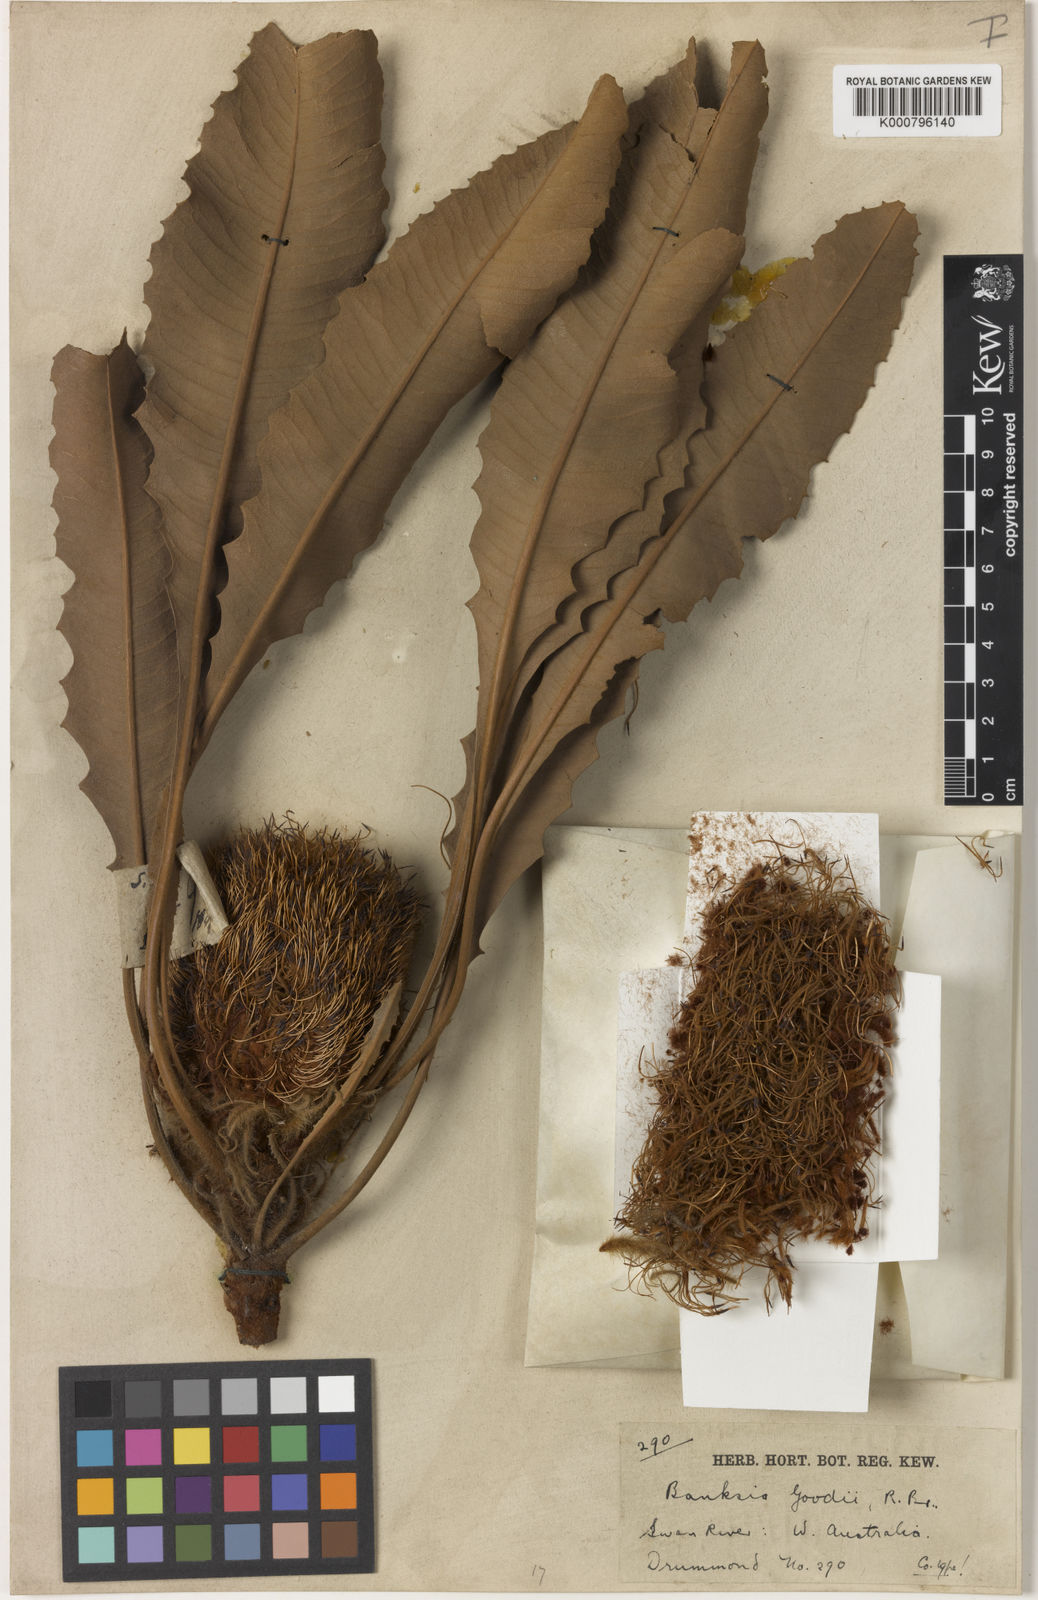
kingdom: Plantae
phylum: Tracheophyta
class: Magnoliopsida
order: Proteales
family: Proteaceae
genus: Banksia
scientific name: Banksia goodii
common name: Good’s banksia
